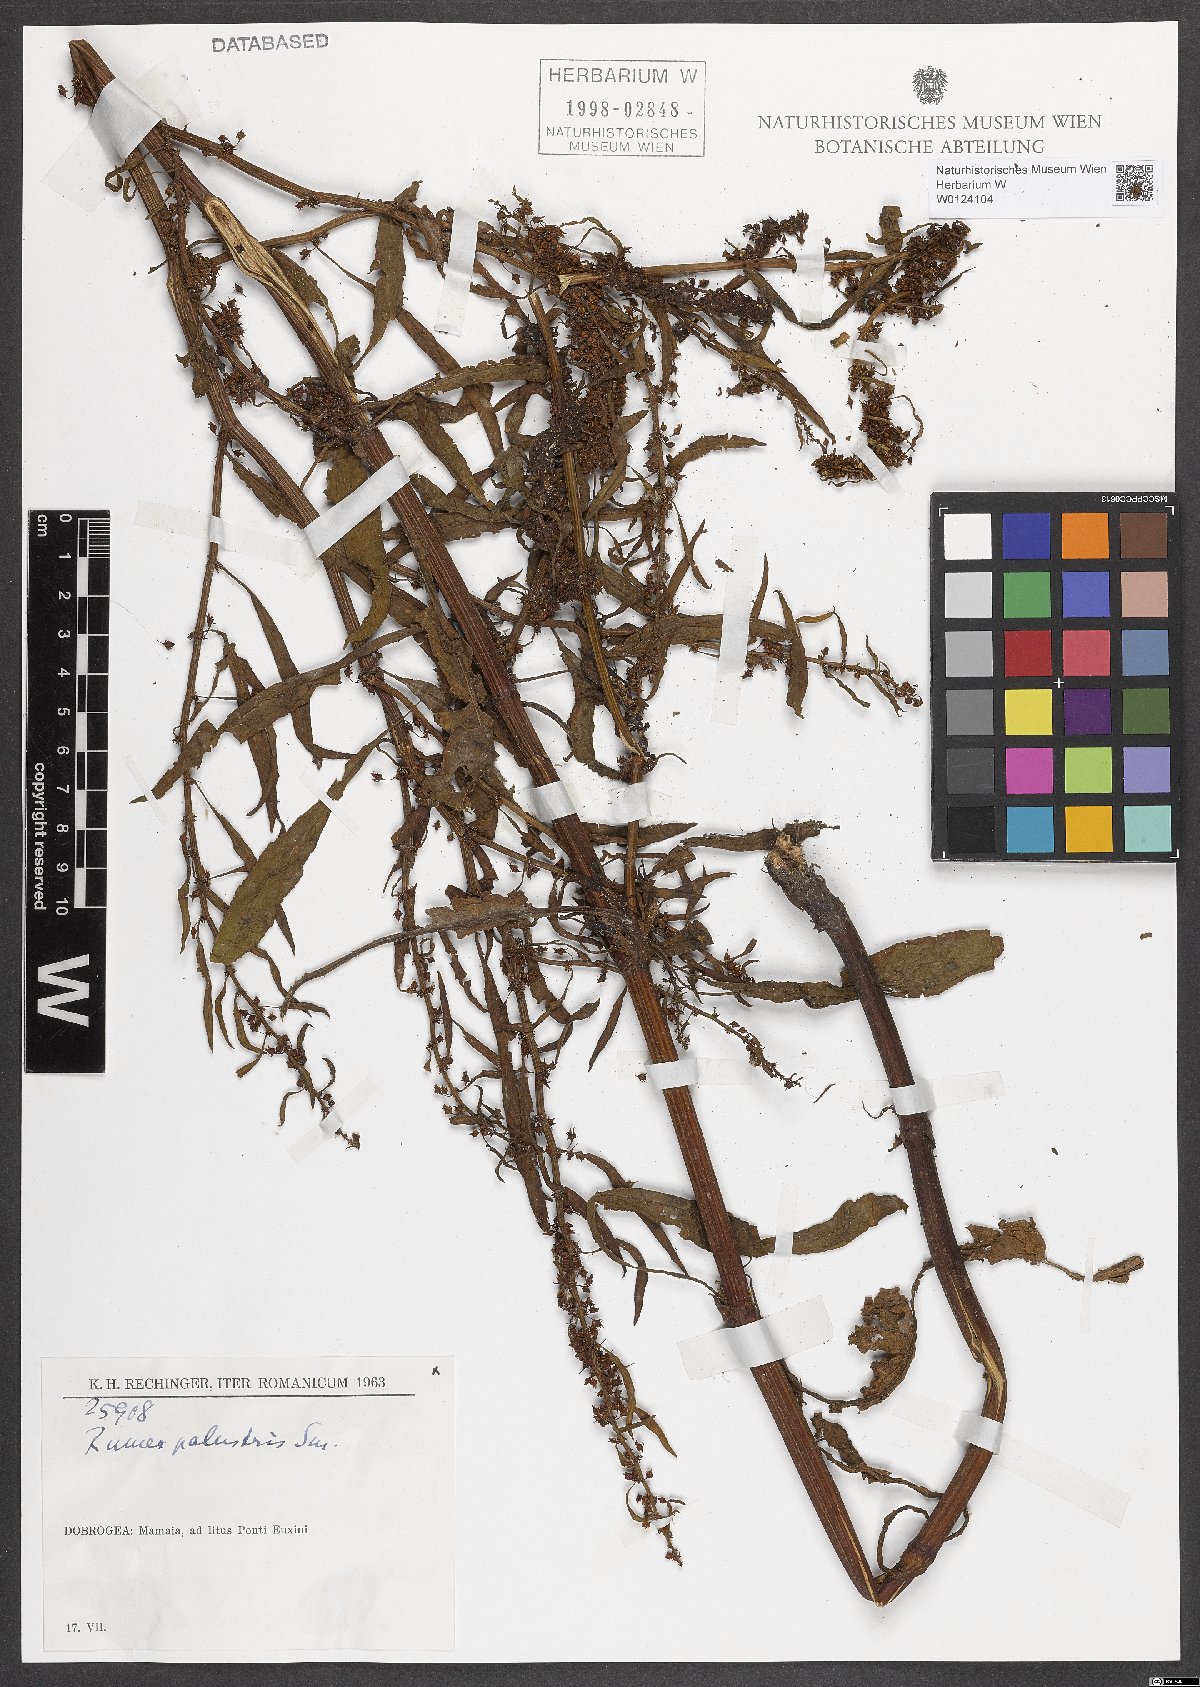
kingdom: Plantae
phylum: Tracheophyta
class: Magnoliopsida
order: Caryophyllales
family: Polygonaceae
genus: Rumex
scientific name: Rumex palustris
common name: Marsh dock
